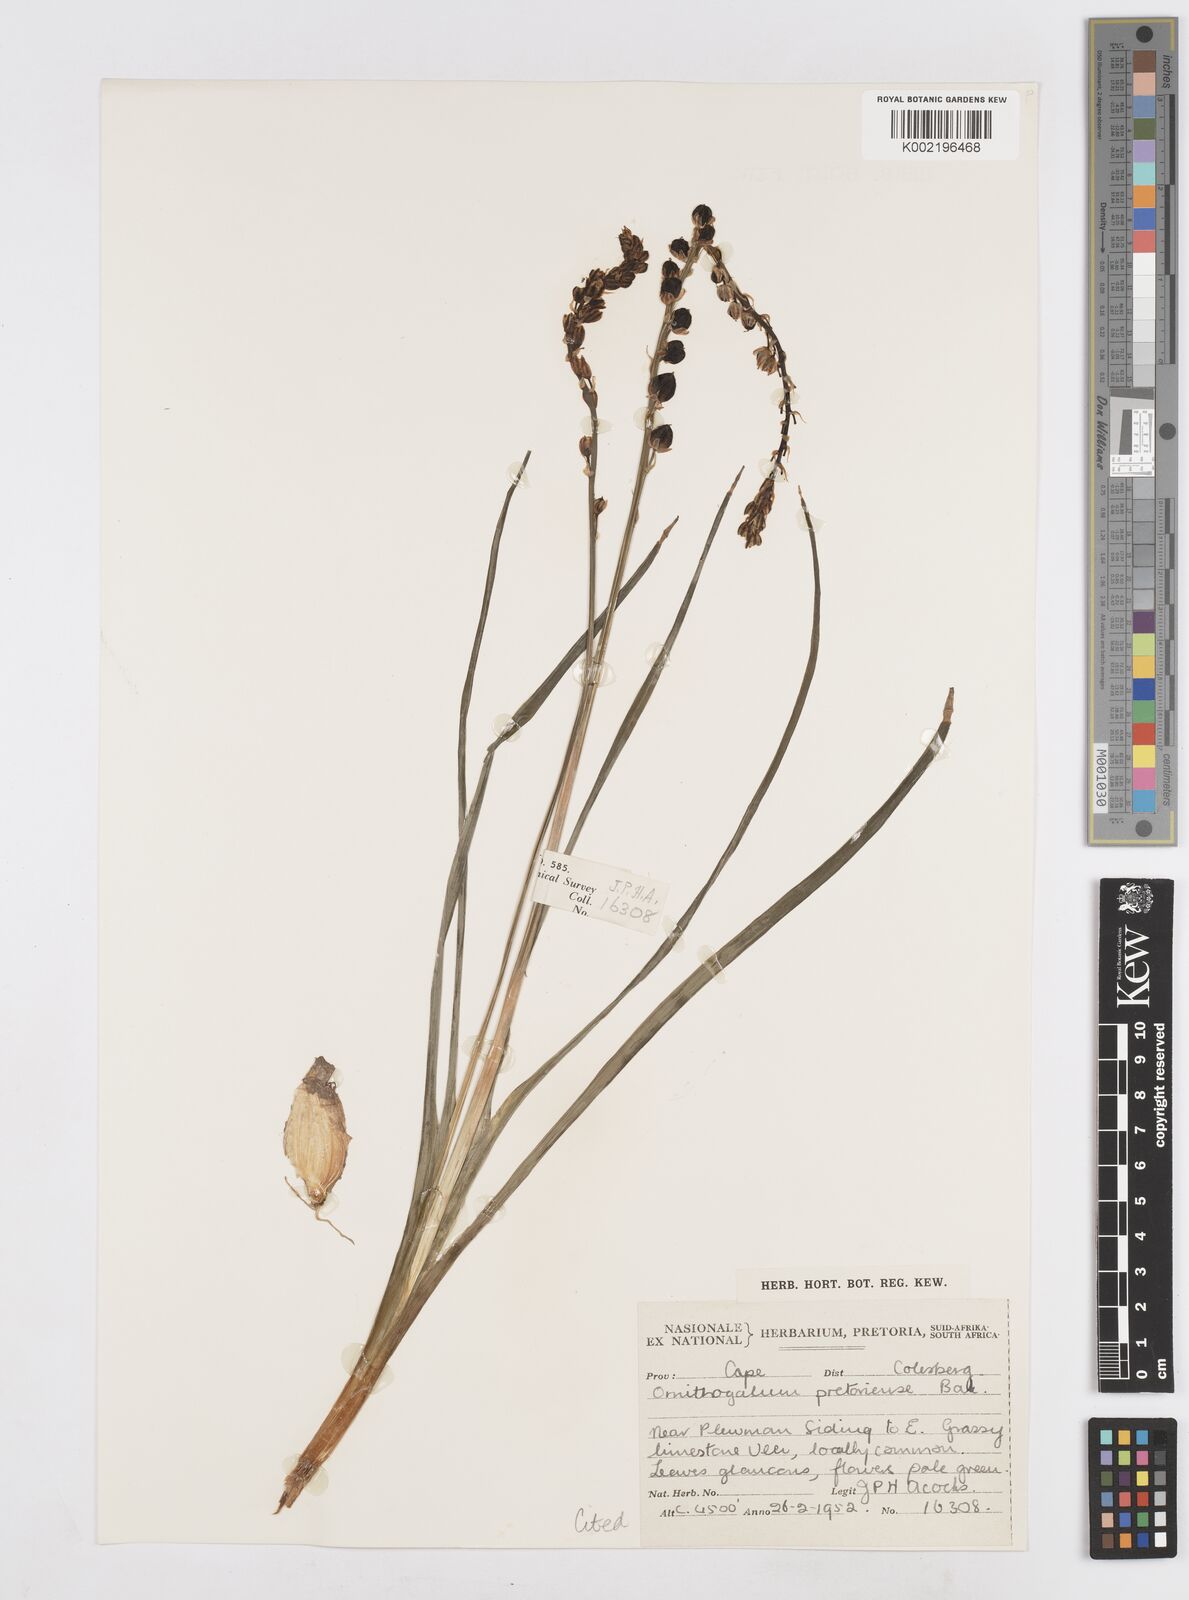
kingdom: Plantae
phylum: Tracheophyta
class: Liliopsida
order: Asparagales
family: Asparagaceae
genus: Albuca
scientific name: Albuca virens
